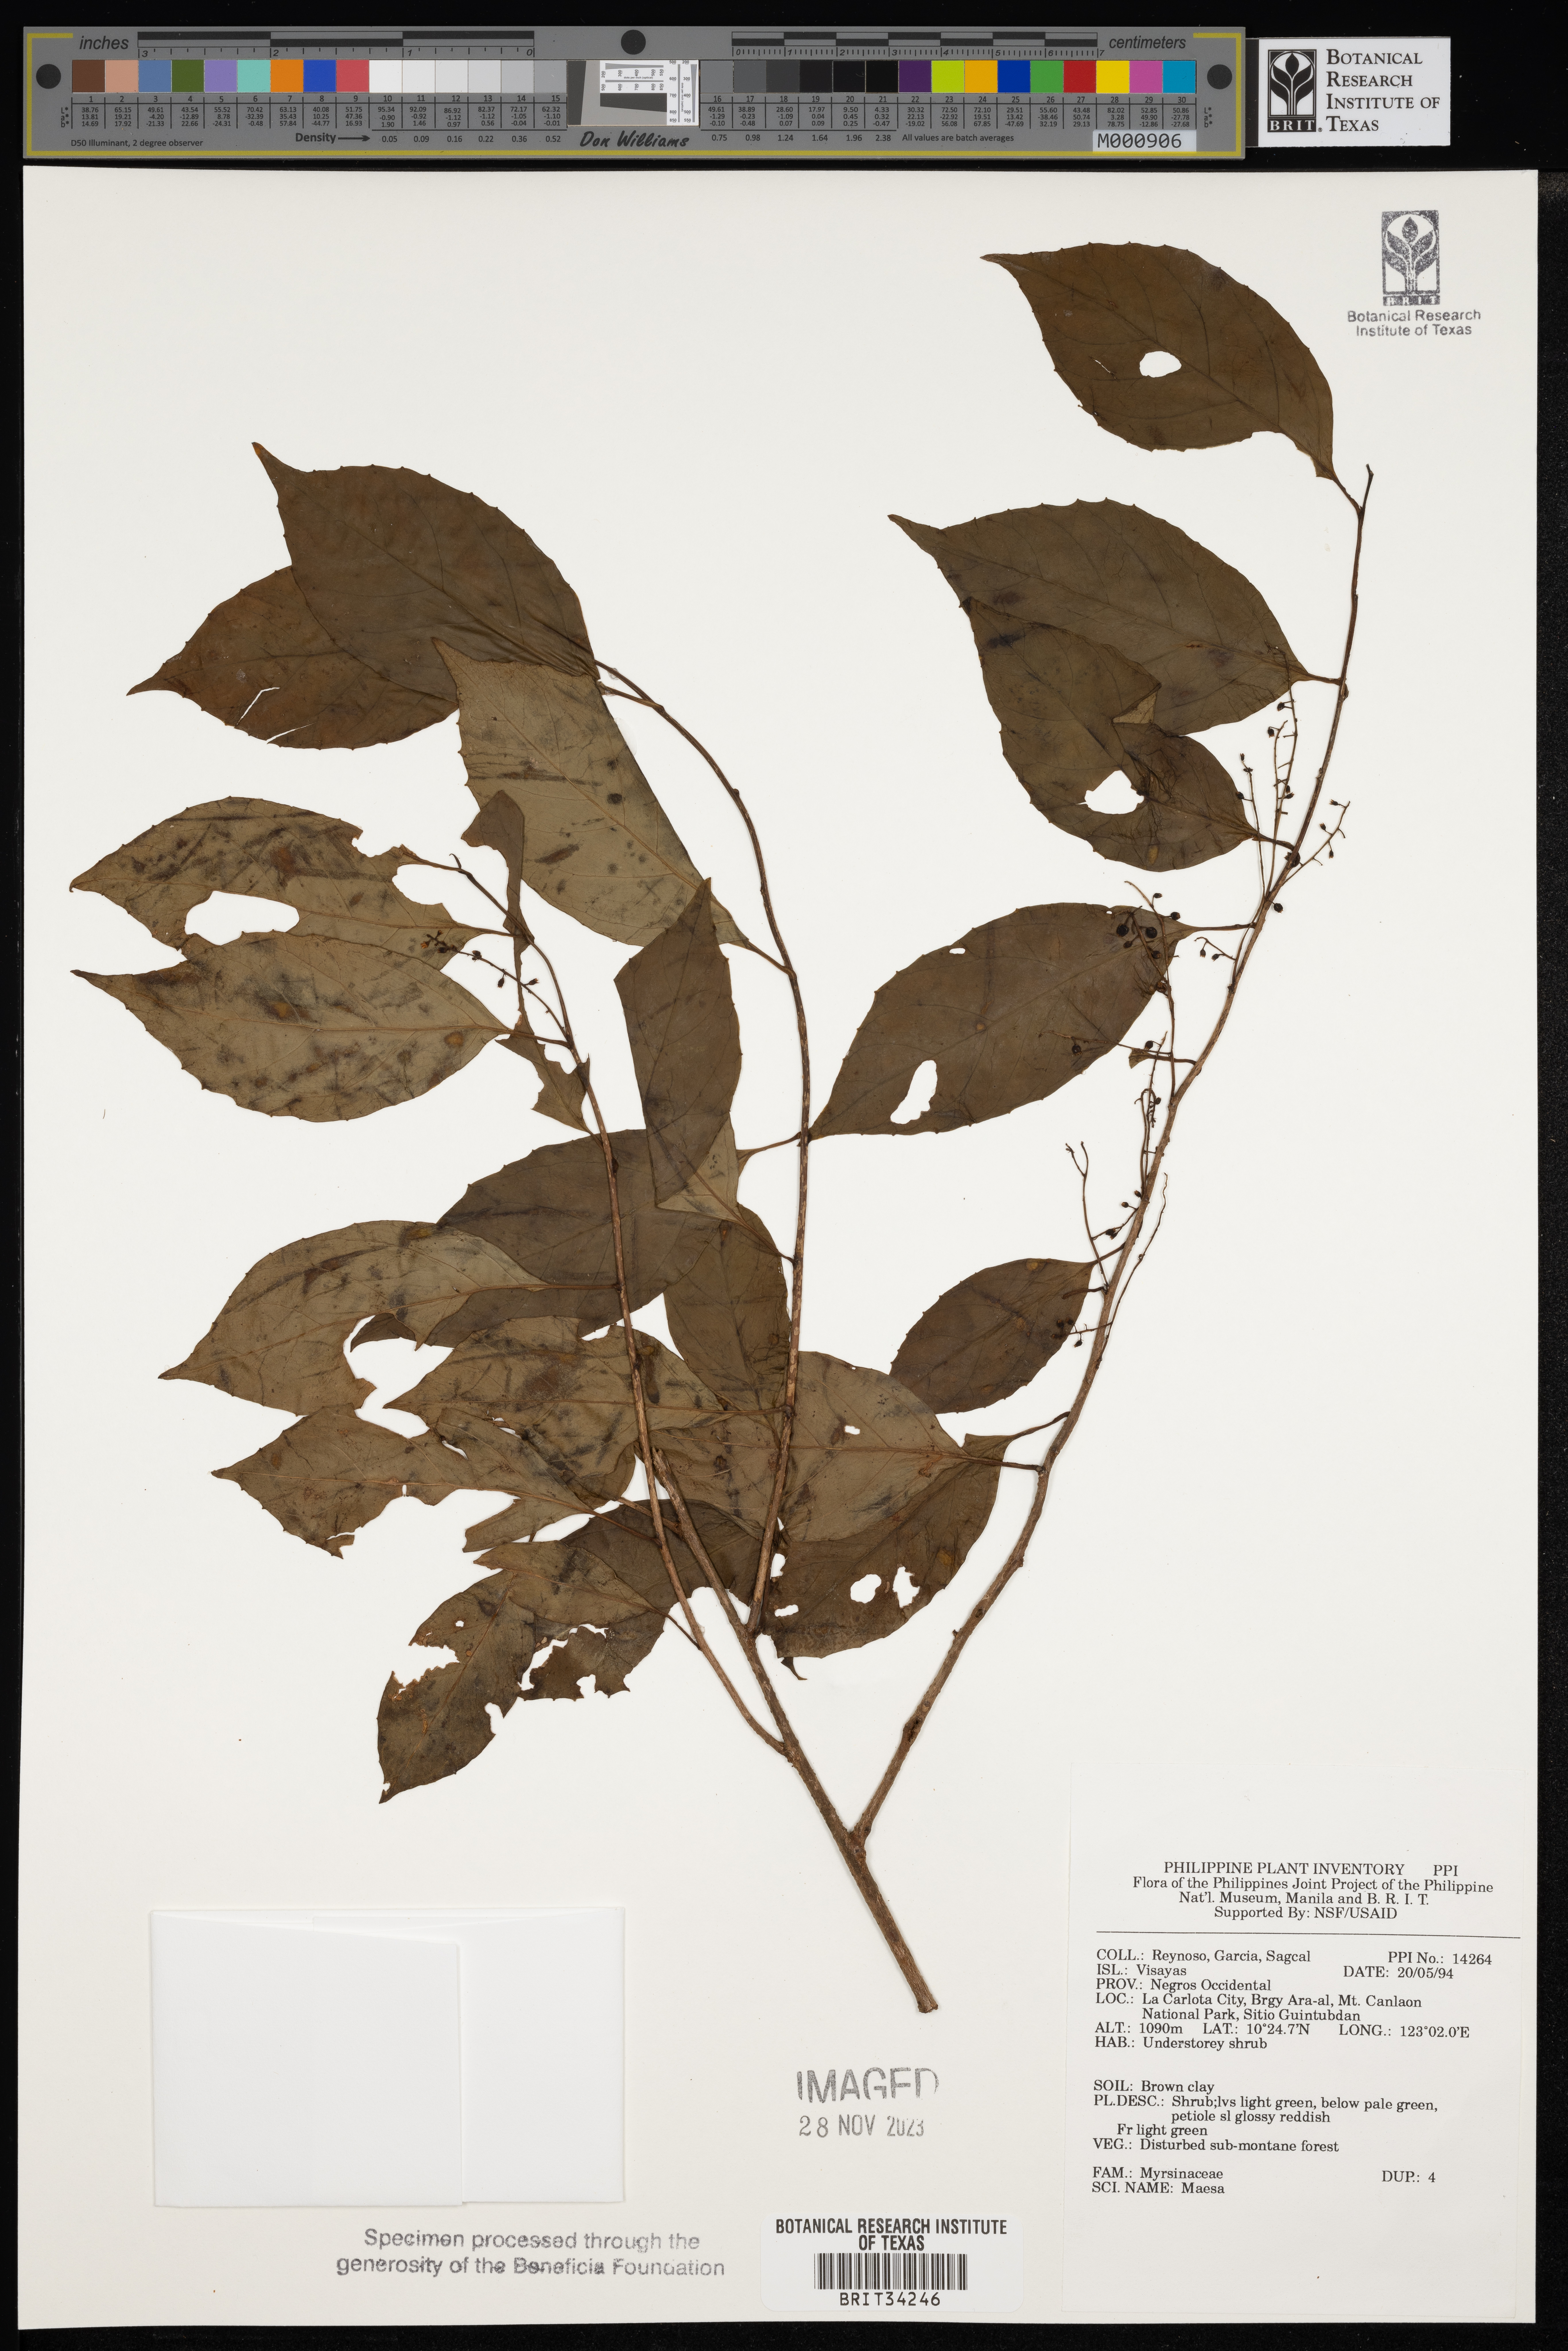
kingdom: Plantae
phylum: Tracheophyta
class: Magnoliopsida
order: Ericales
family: Primulaceae
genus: Maesa
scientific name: Maesa
